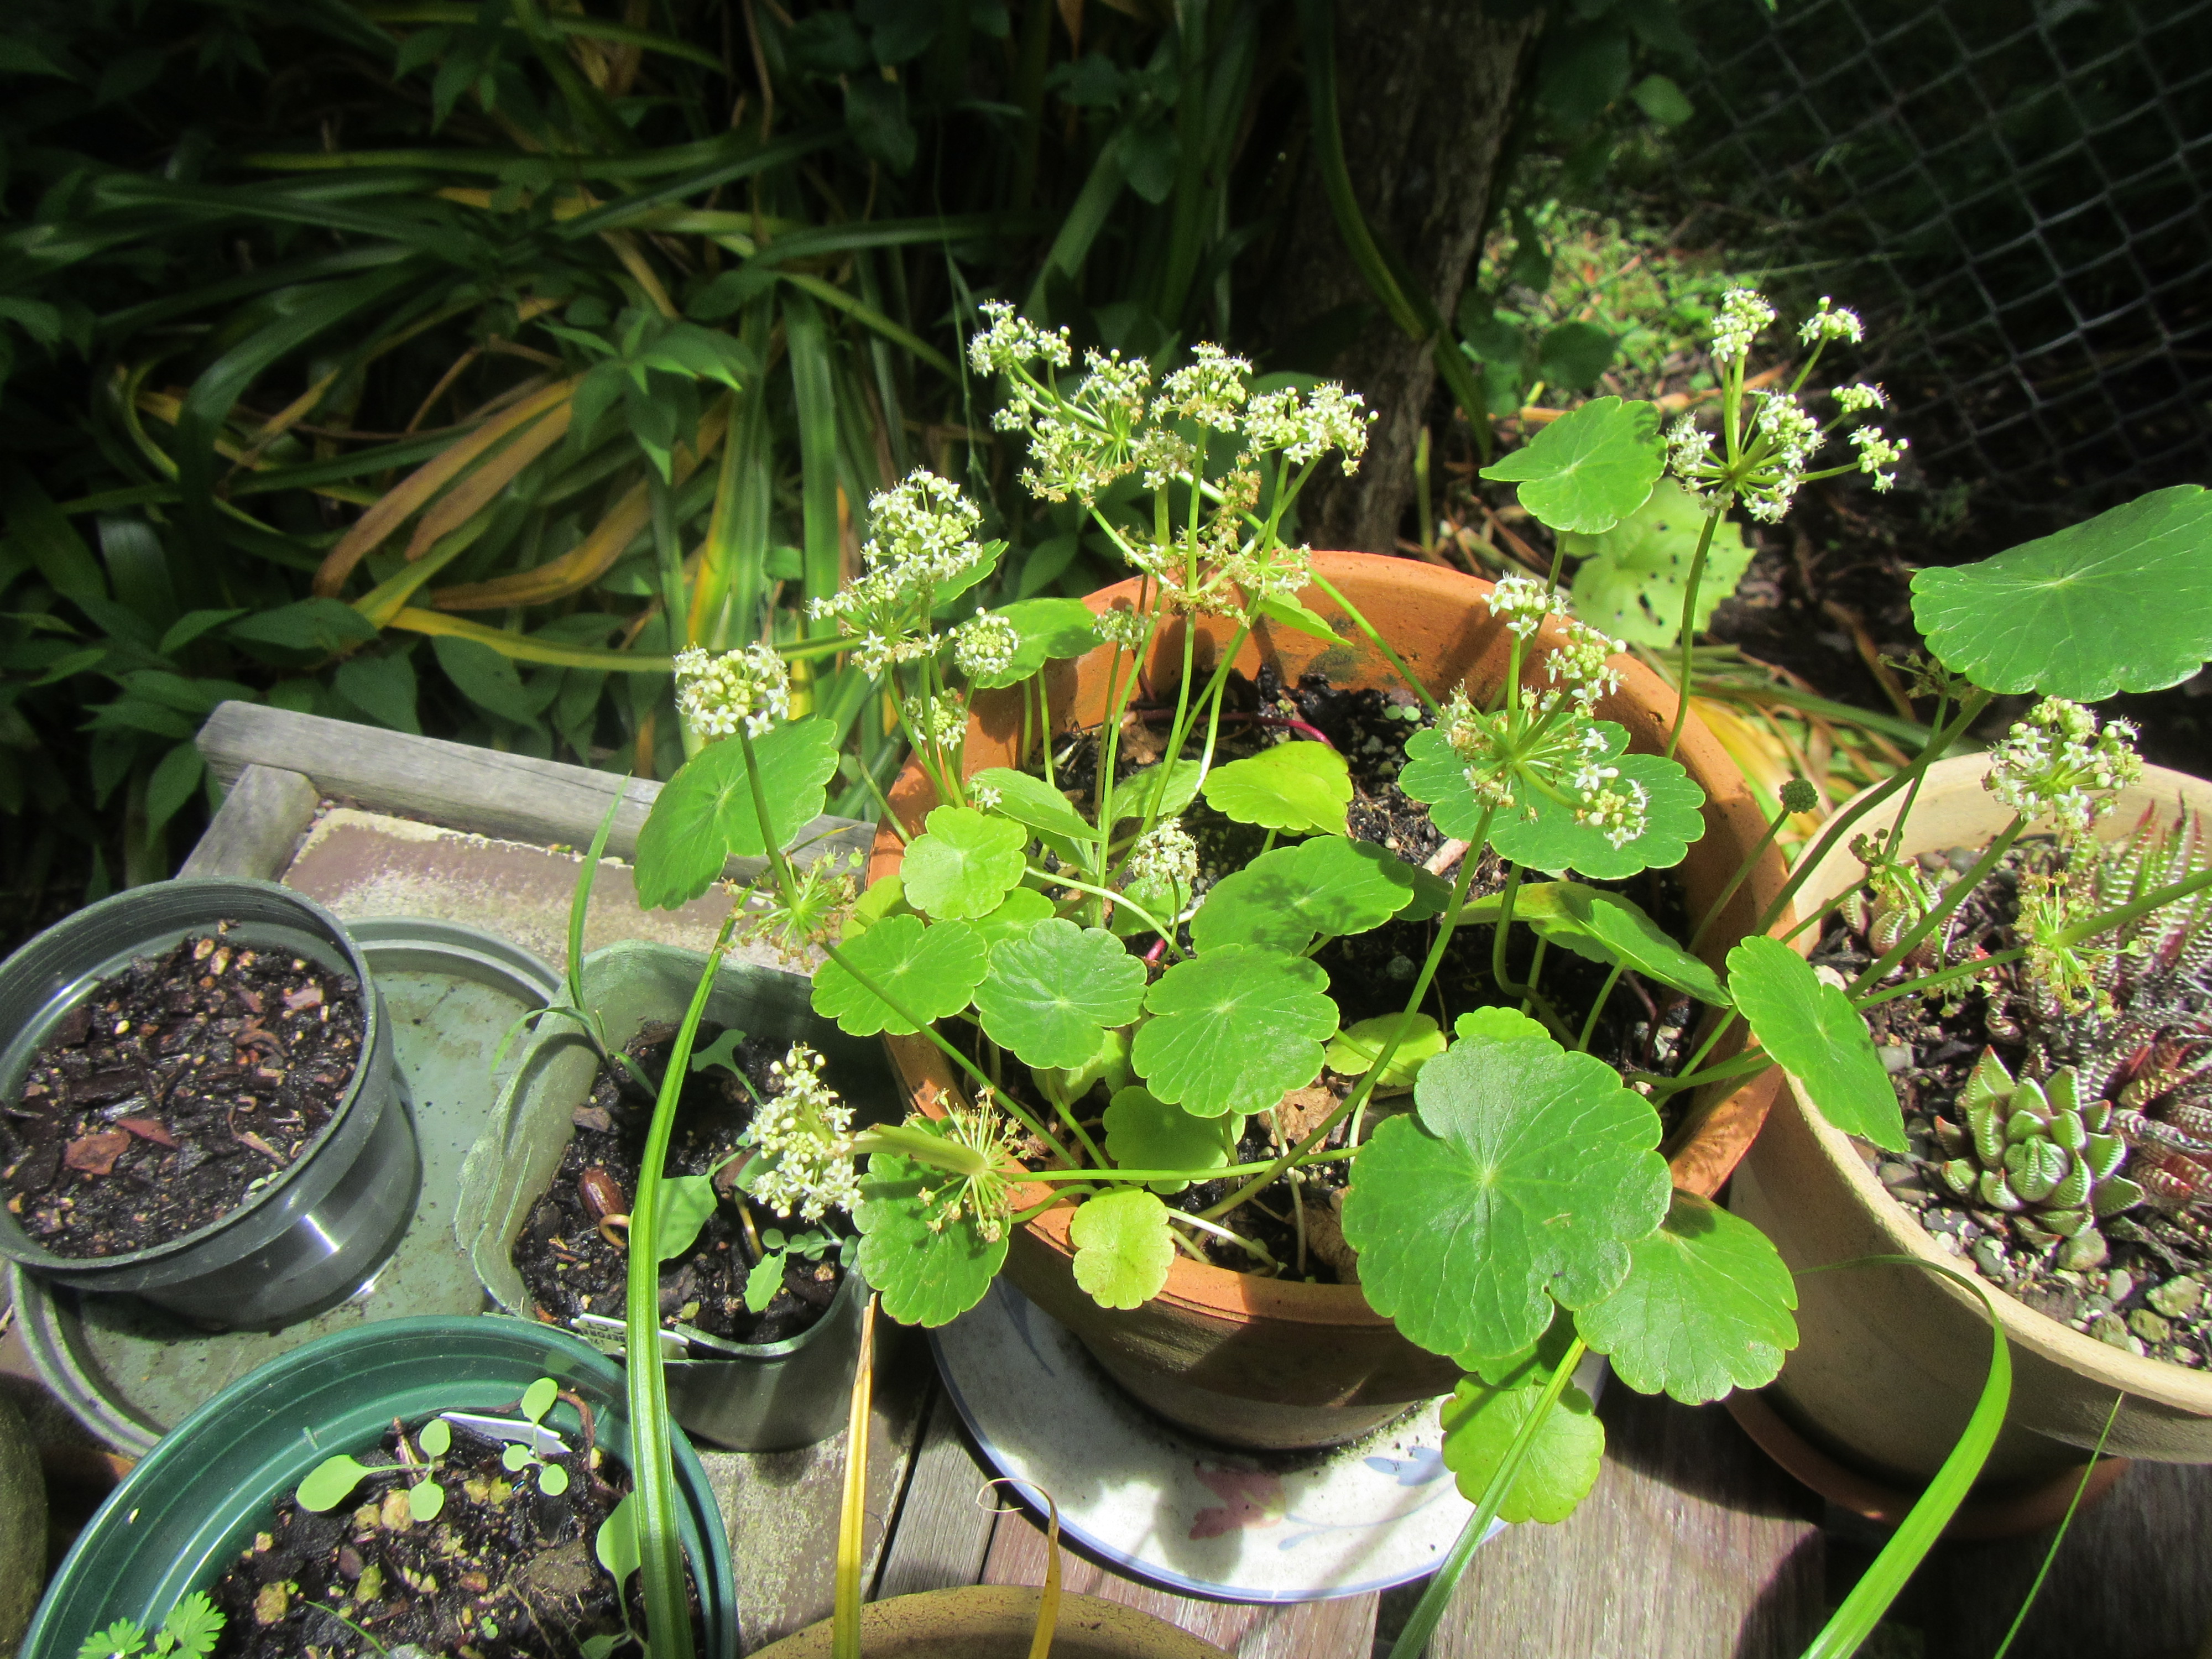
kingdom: Plantae
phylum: Tracheophyta
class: Magnoliopsida
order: Apiales
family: Araliaceae
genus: Hydrocotyle
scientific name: Hydrocotyle bonariensis
